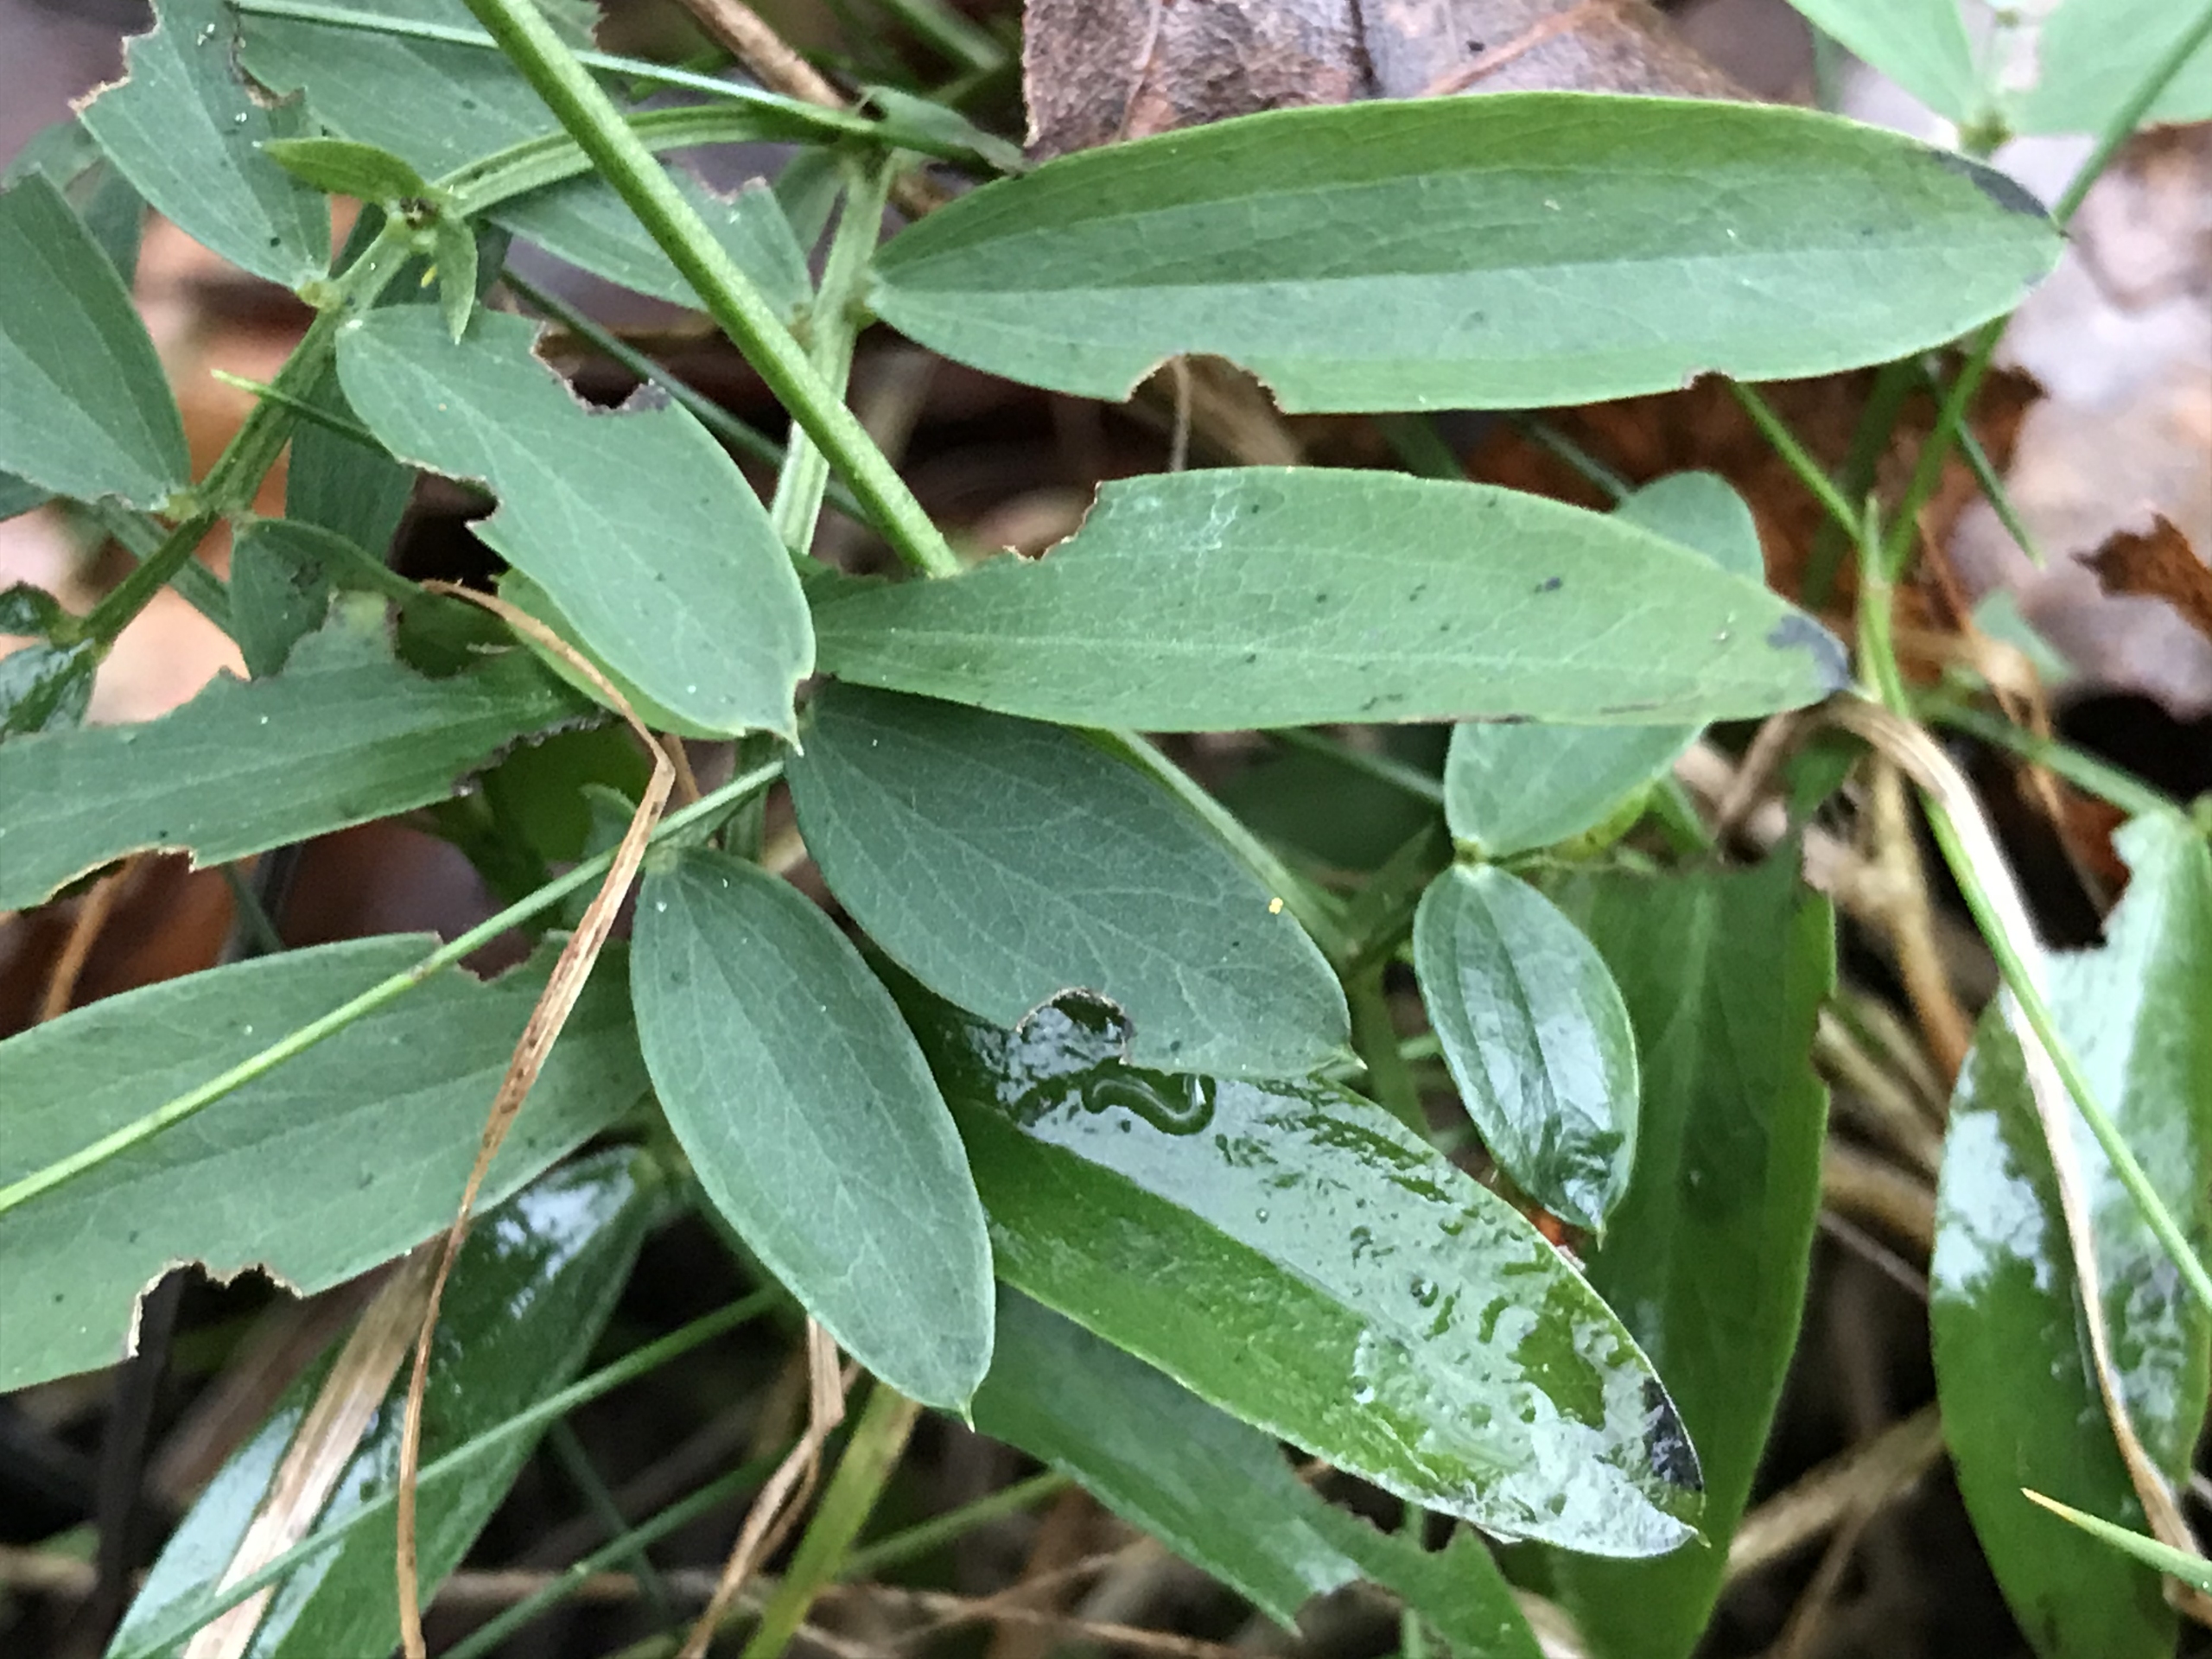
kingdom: Plantae
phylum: Tracheophyta
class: Magnoliopsida
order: Fabales
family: Fabaceae
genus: Lathyrus
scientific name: Lathyrus linifolius
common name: Krat-fladbælg
